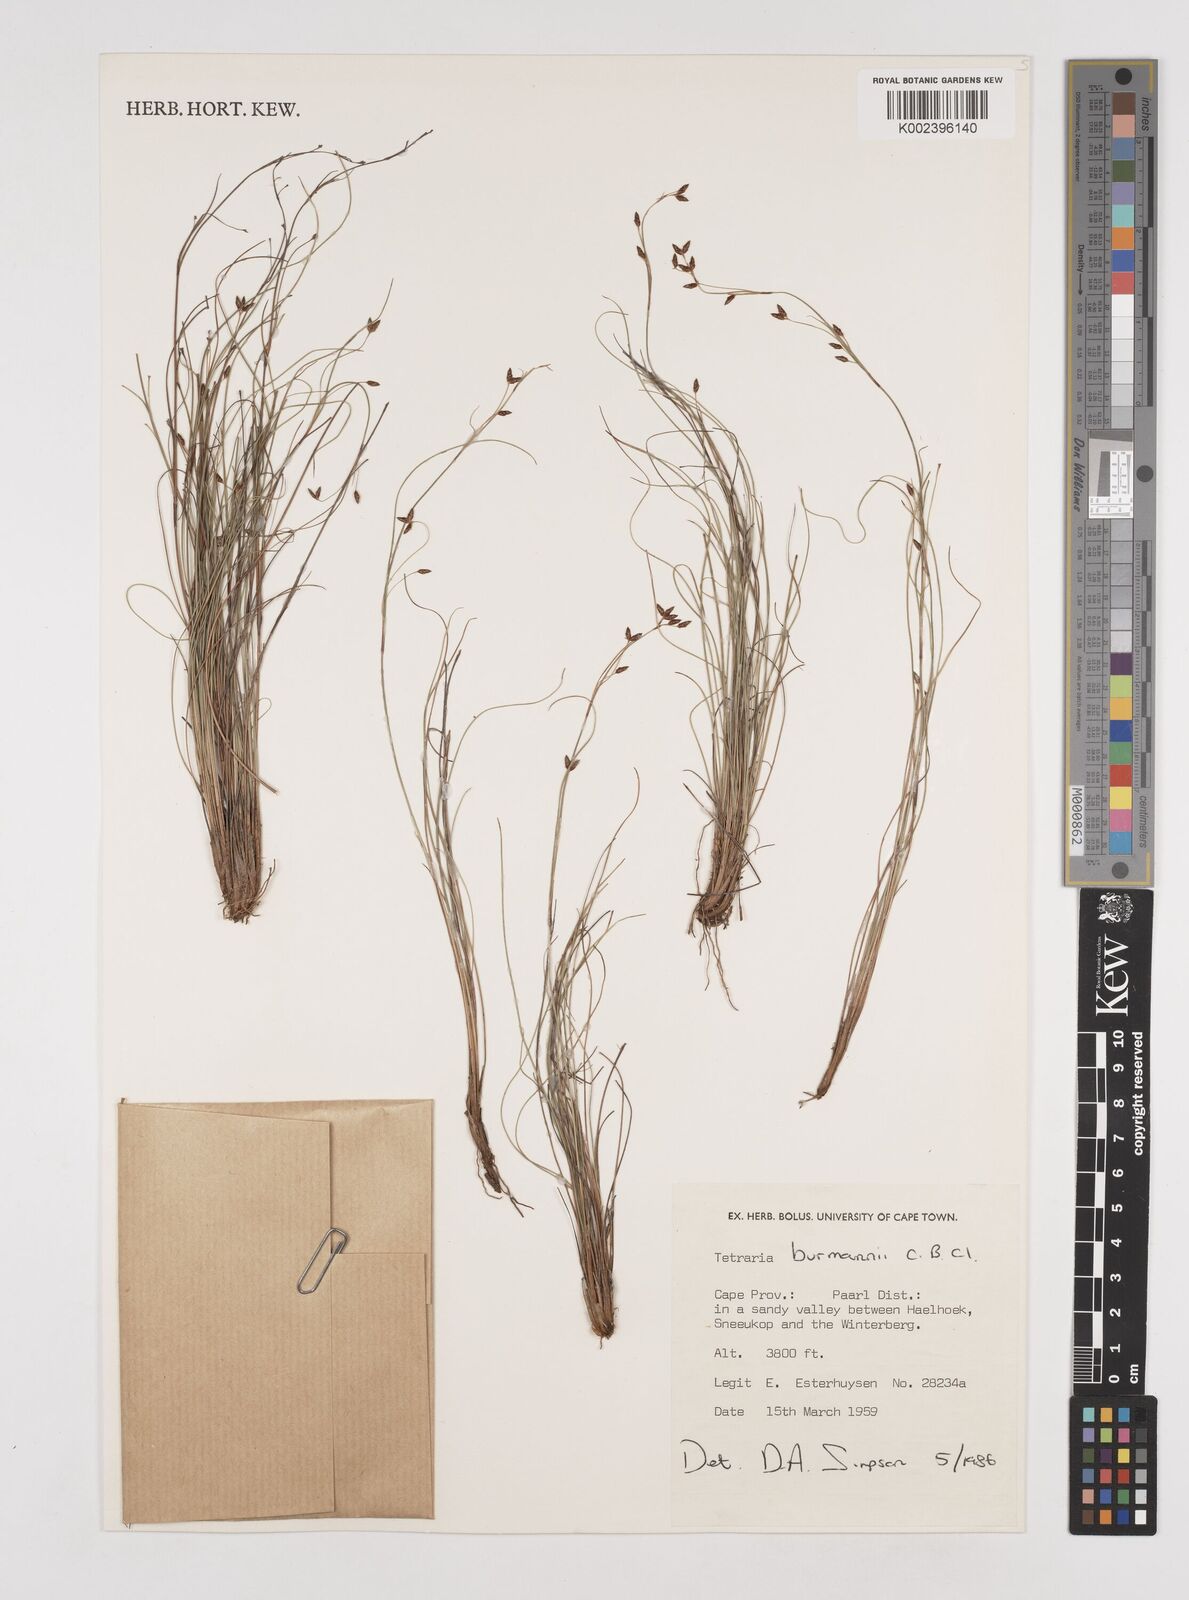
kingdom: Plantae
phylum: Tracheophyta
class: Liliopsida
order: Poales
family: Cyperaceae
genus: Tetraria
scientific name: Tetraria burmanni
